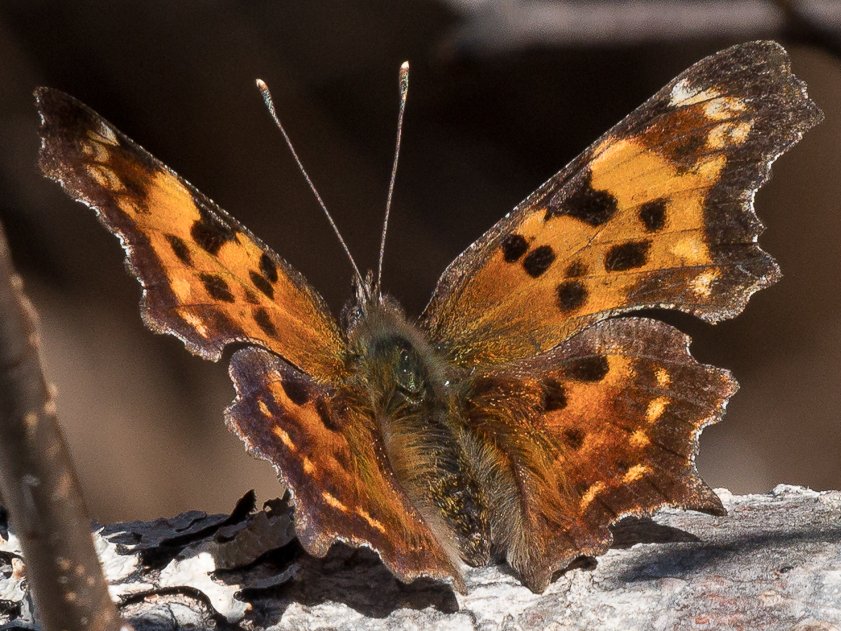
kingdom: Animalia
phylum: Arthropoda
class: Insecta
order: Lepidoptera
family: Nymphalidae
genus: Polygonia
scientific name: Polygonia faunus
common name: Green Comma
